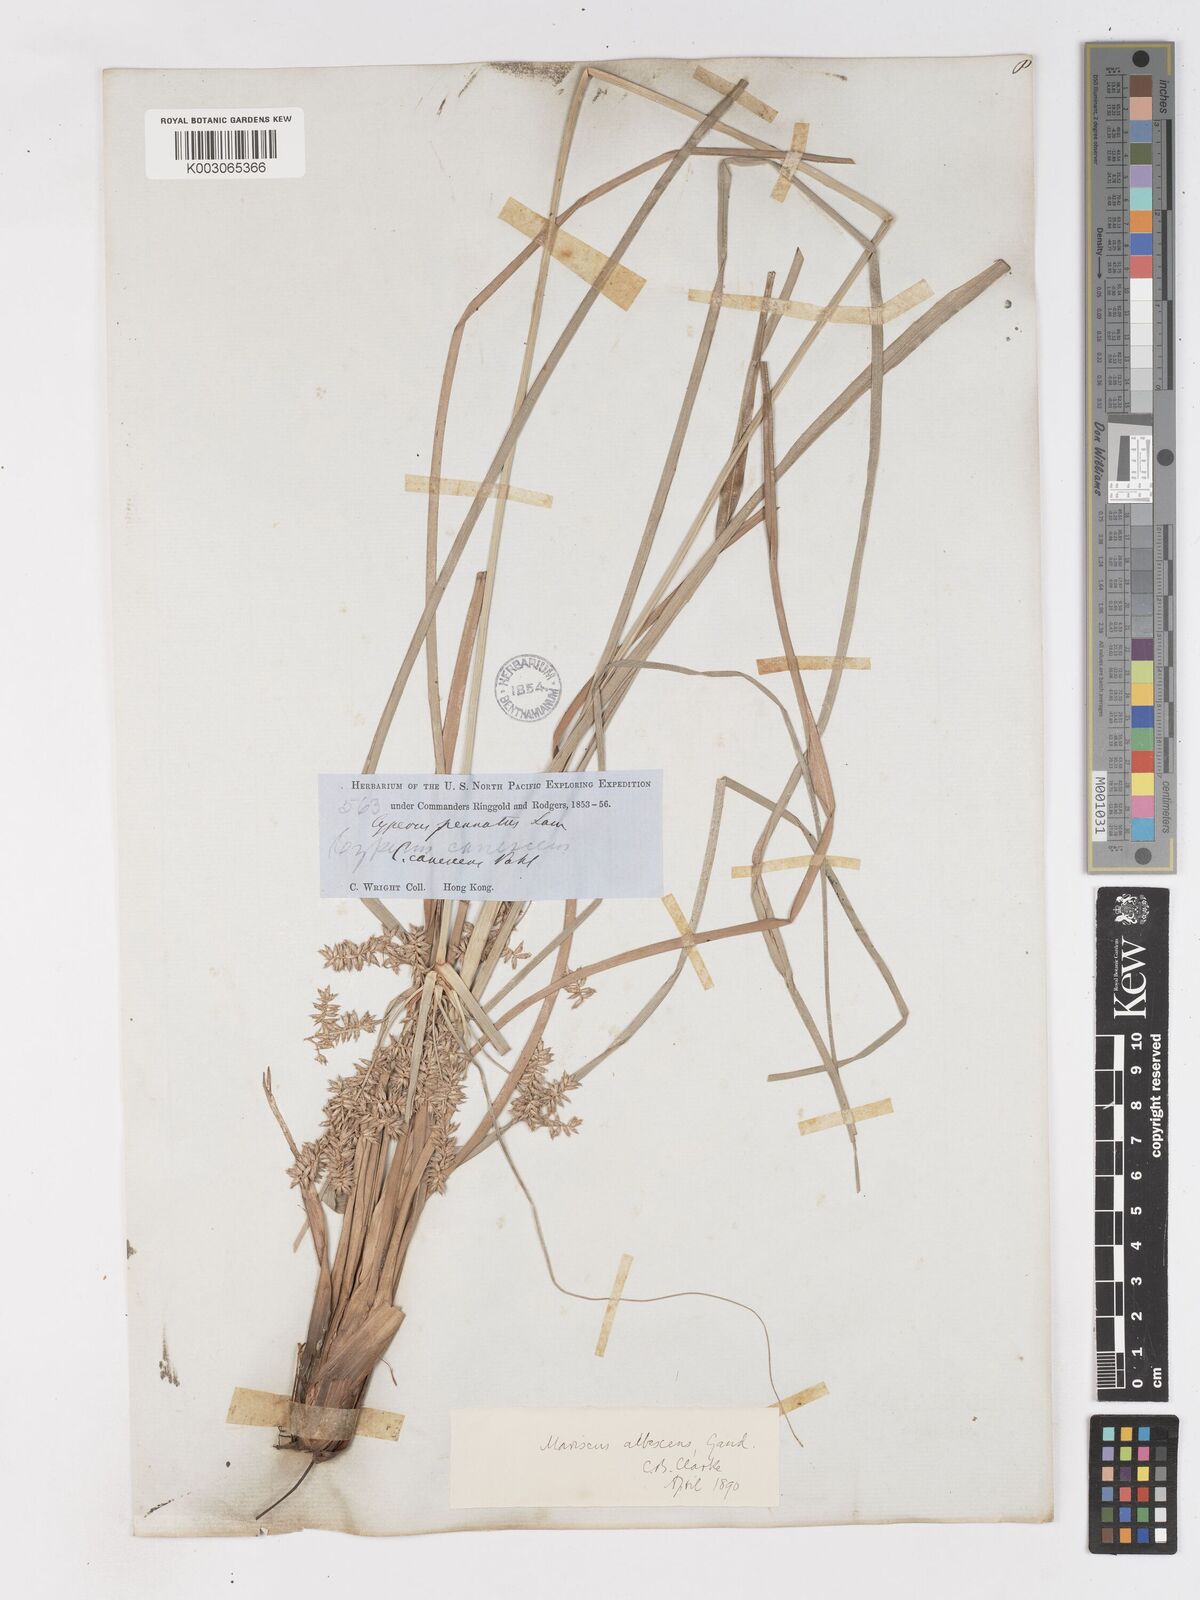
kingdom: Plantae
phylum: Tracheophyta
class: Liliopsida
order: Poales
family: Cyperaceae
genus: Cyperus
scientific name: Cyperus javanicus
